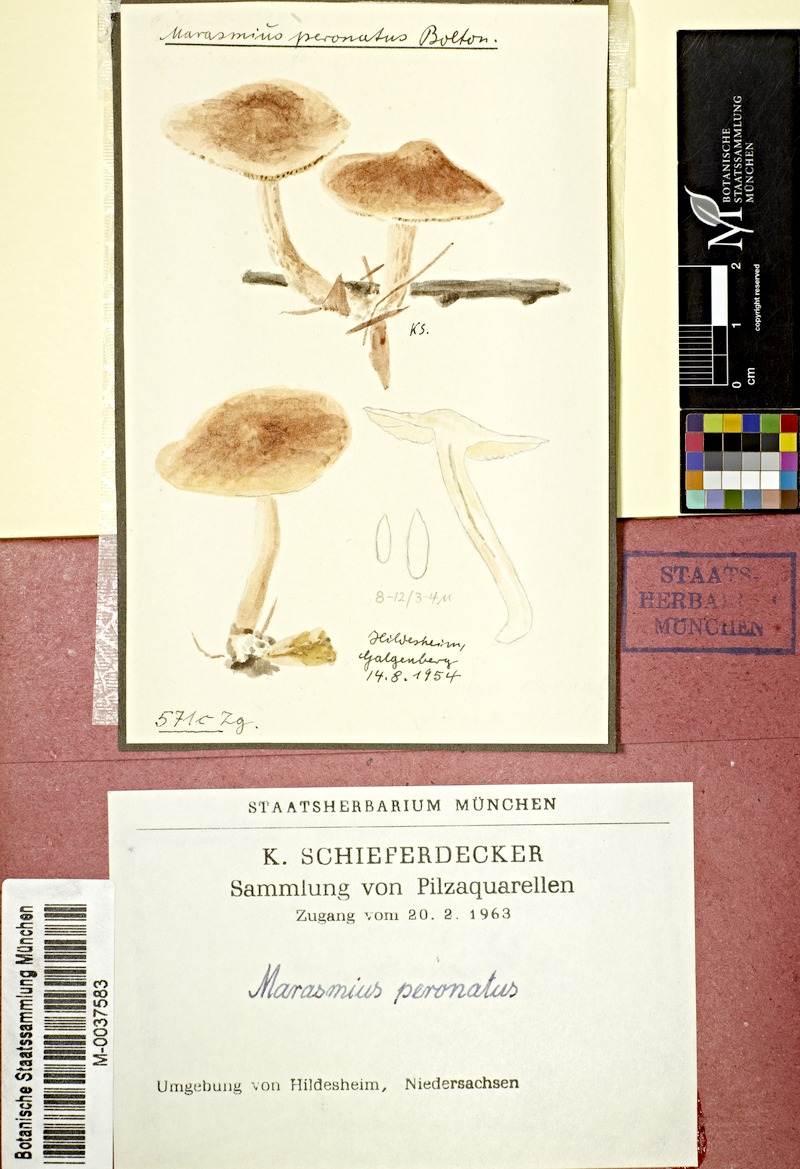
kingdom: Fungi
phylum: Basidiomycota
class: Agaricomycetes
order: Agaricales
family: Omphalotaceae
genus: Collybiopsis
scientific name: Collybiopsis peronata
